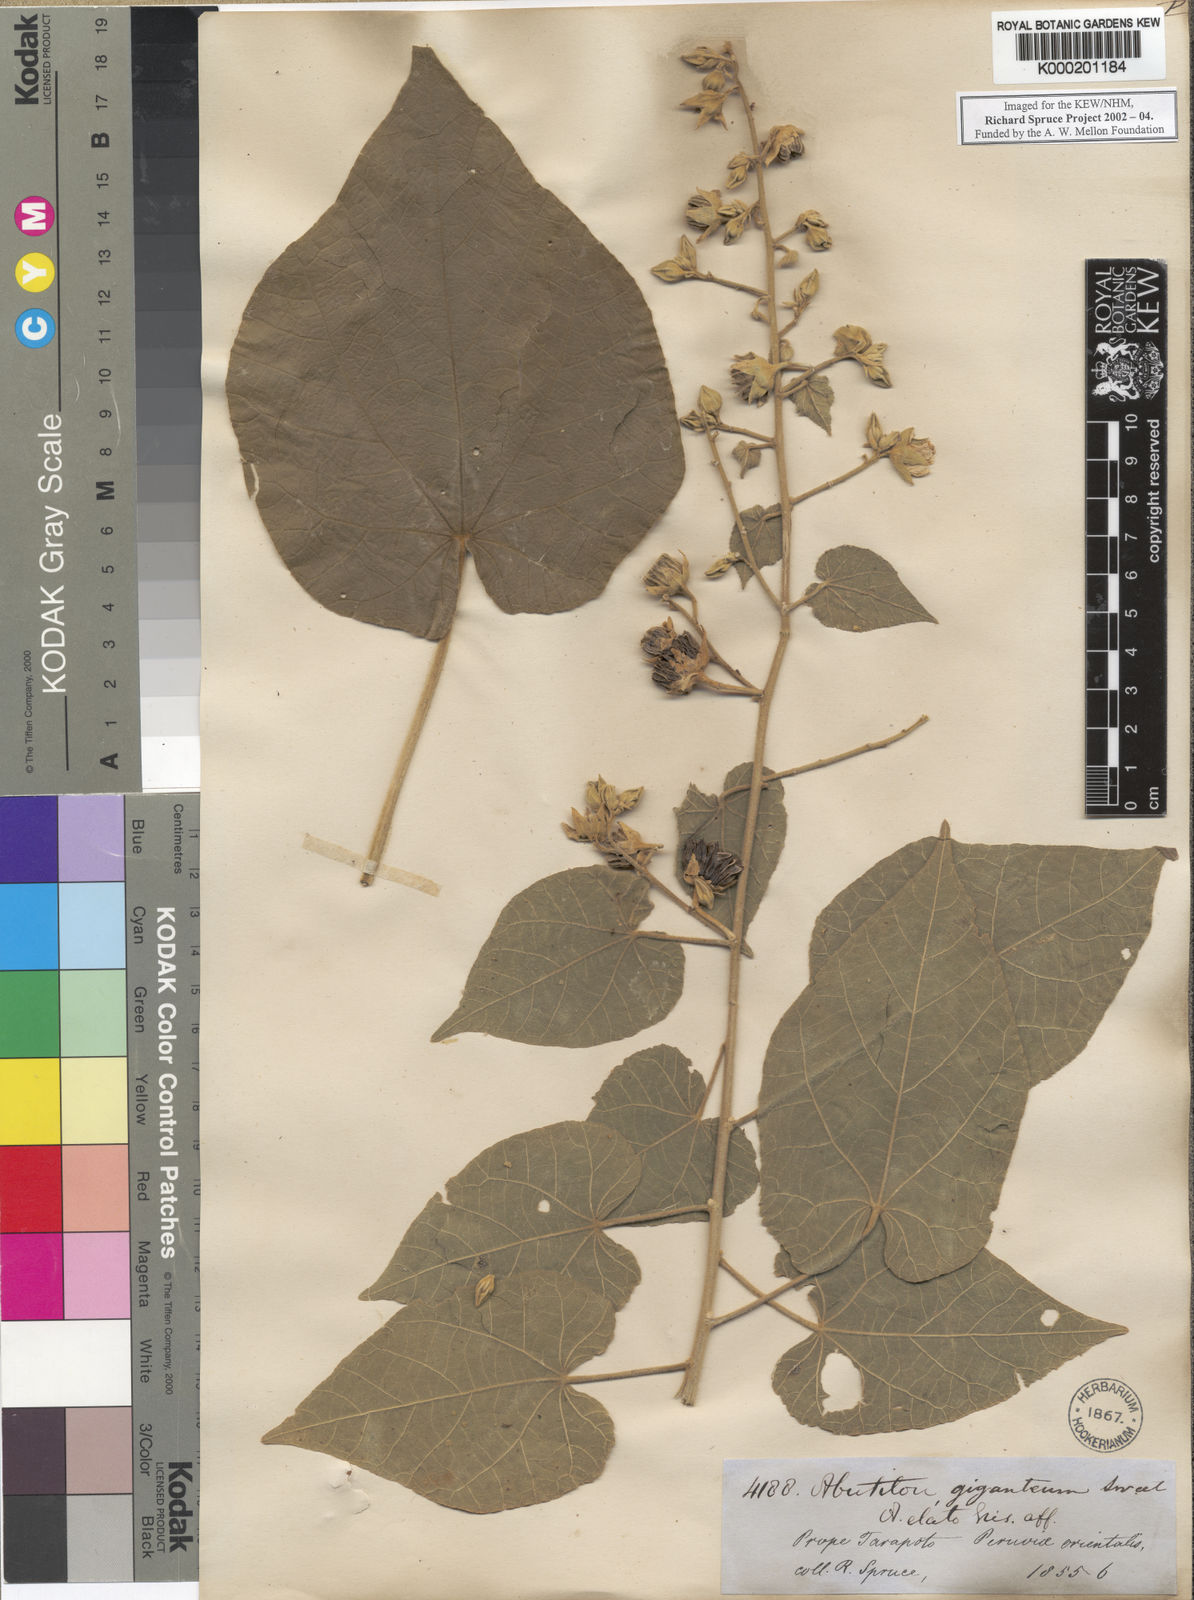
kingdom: Plantae
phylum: Tracheophyta
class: Magnoliopsida
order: Malvales
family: Malvaceae
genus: Abutilon
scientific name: Abutilon giganteum
